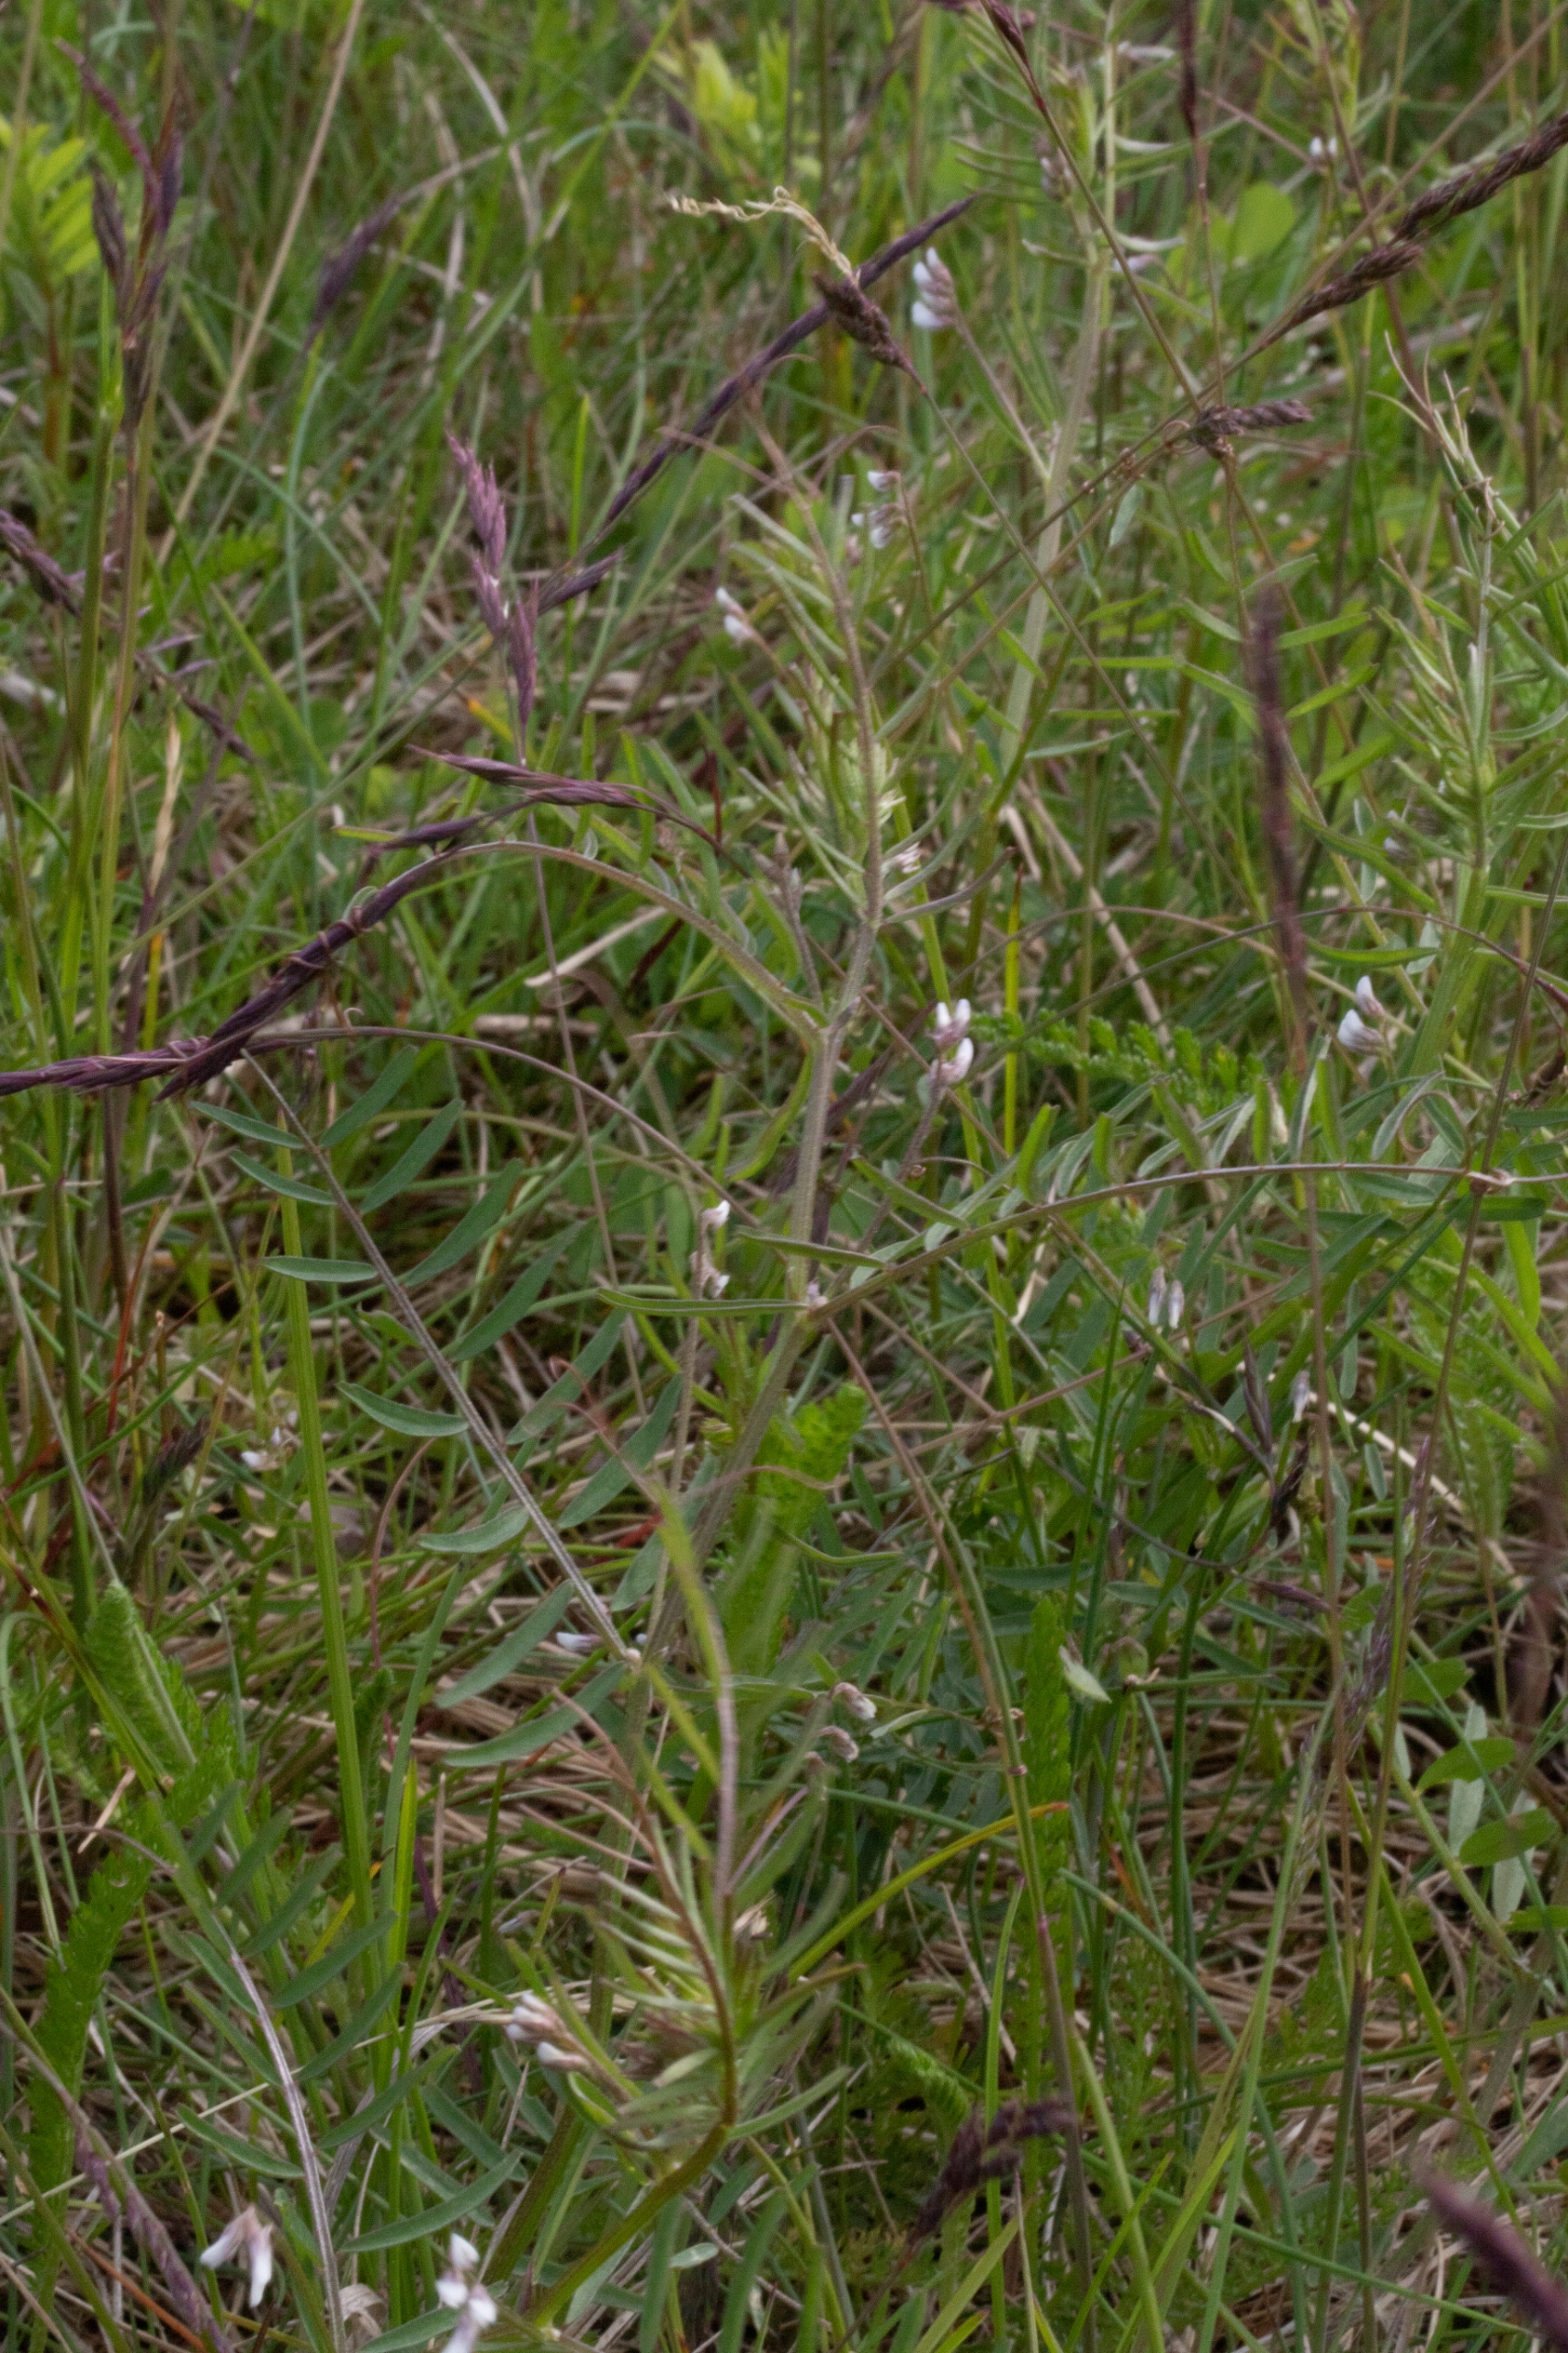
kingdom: Plantae
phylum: Tracheophyta
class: Magnoliopsida
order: Fabales
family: Fabaceae
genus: Vicia
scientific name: Vicia hirsuta
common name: Tofrøet vikke
